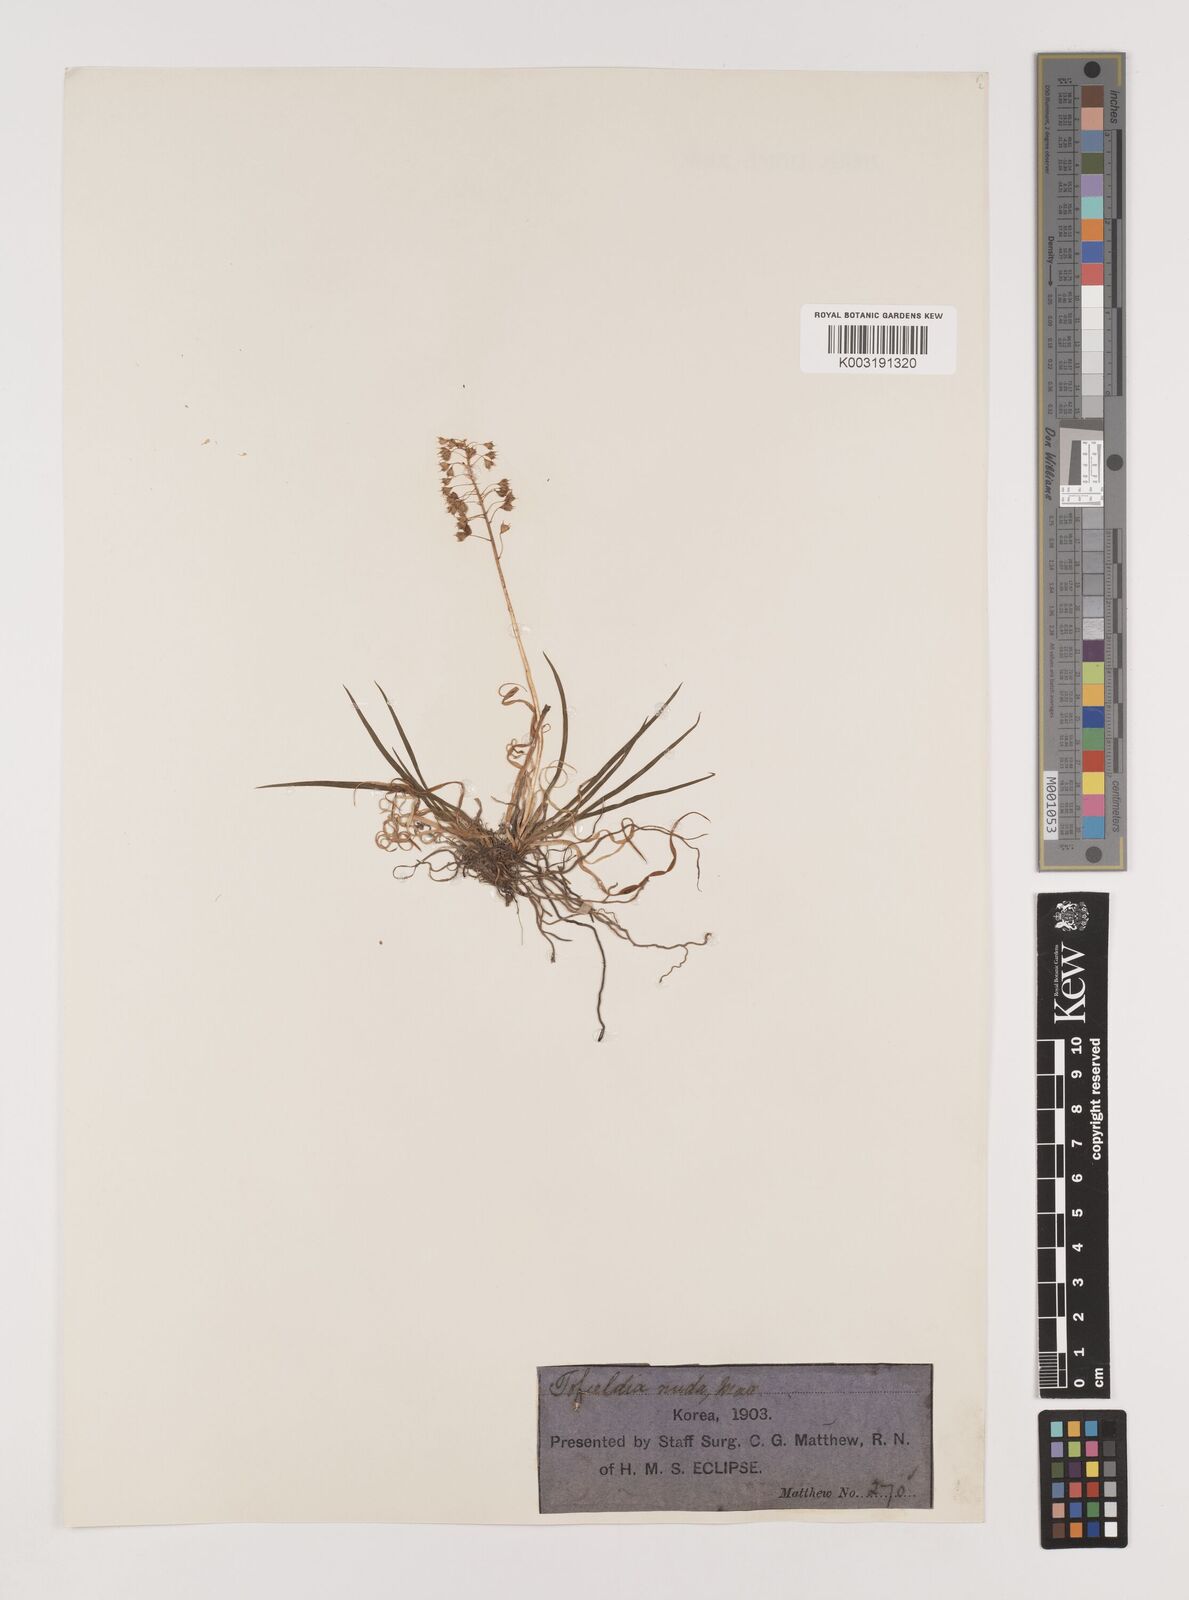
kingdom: Plantae
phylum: Tracheophyta
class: Liliopsida
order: Alismatales
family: Tofieldiaceae
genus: Tofieldia
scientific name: Tofieldia nuda
